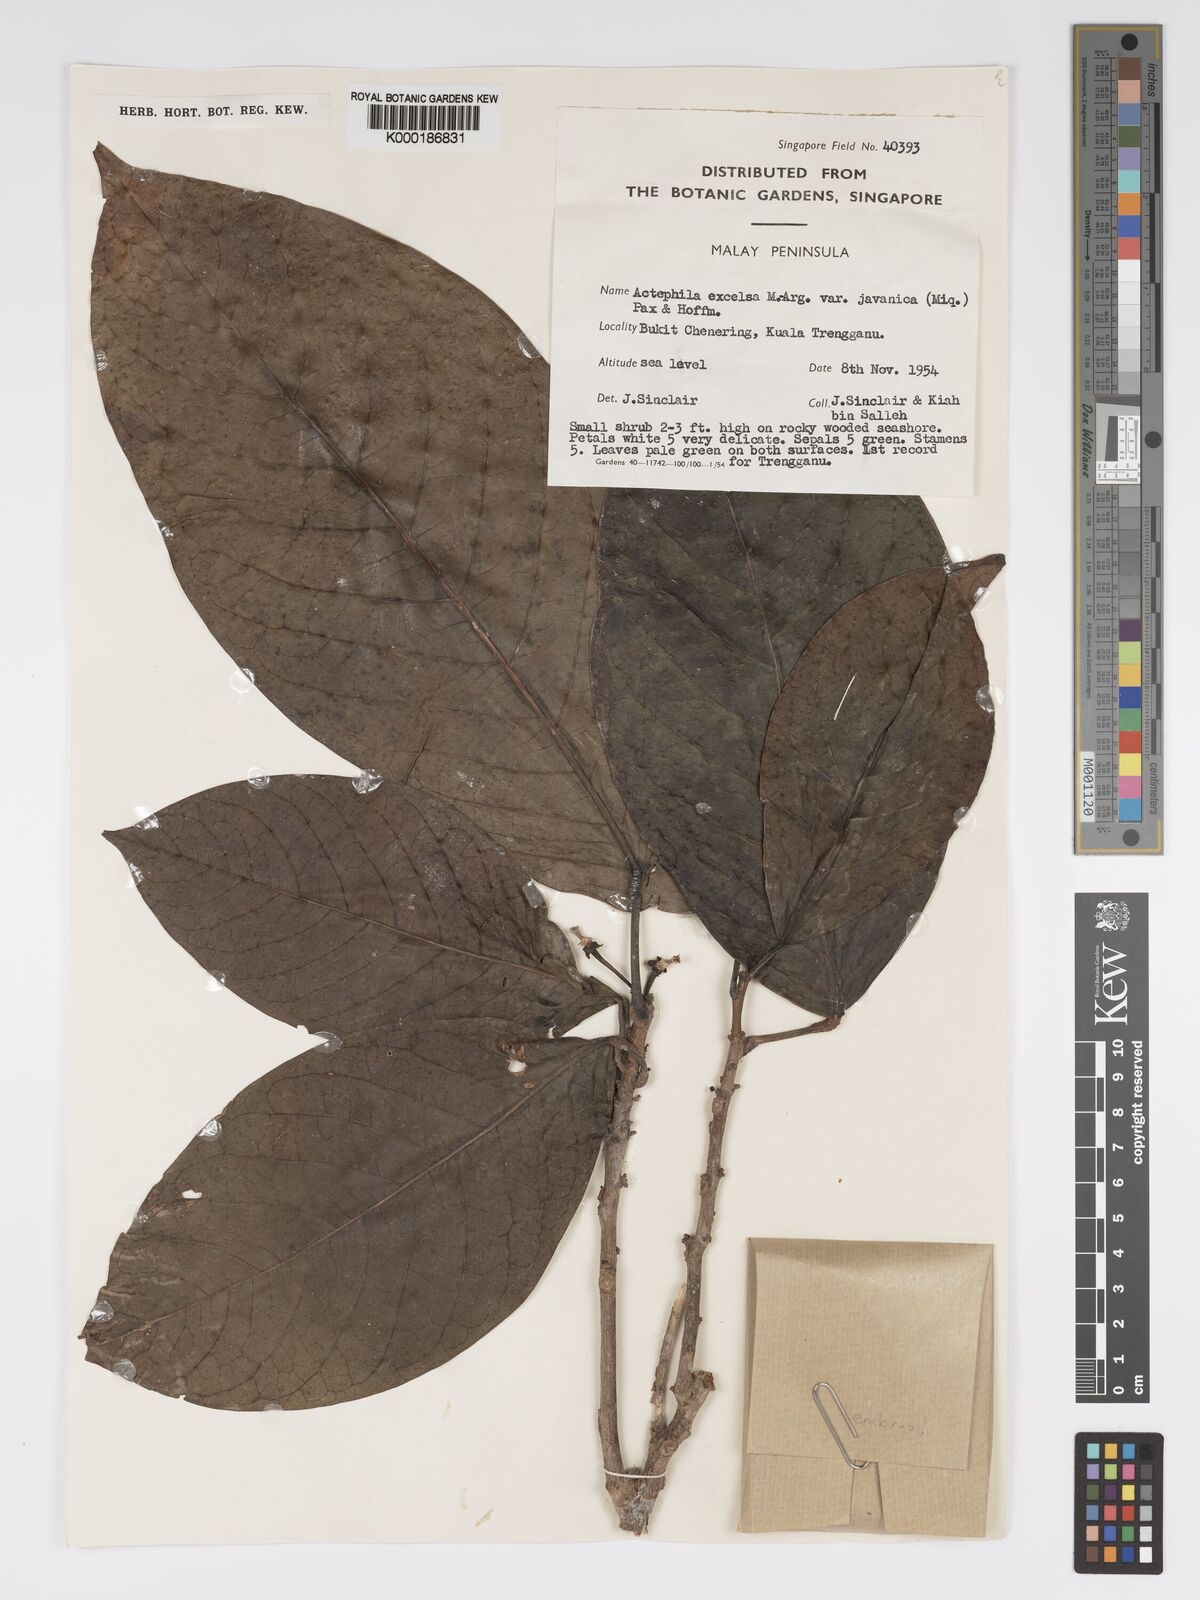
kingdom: Plantae
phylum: Tracheophyta
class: Magnoliopsida
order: Malpighiales
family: Phyllanthaceae
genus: Actephila
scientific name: Actephila
